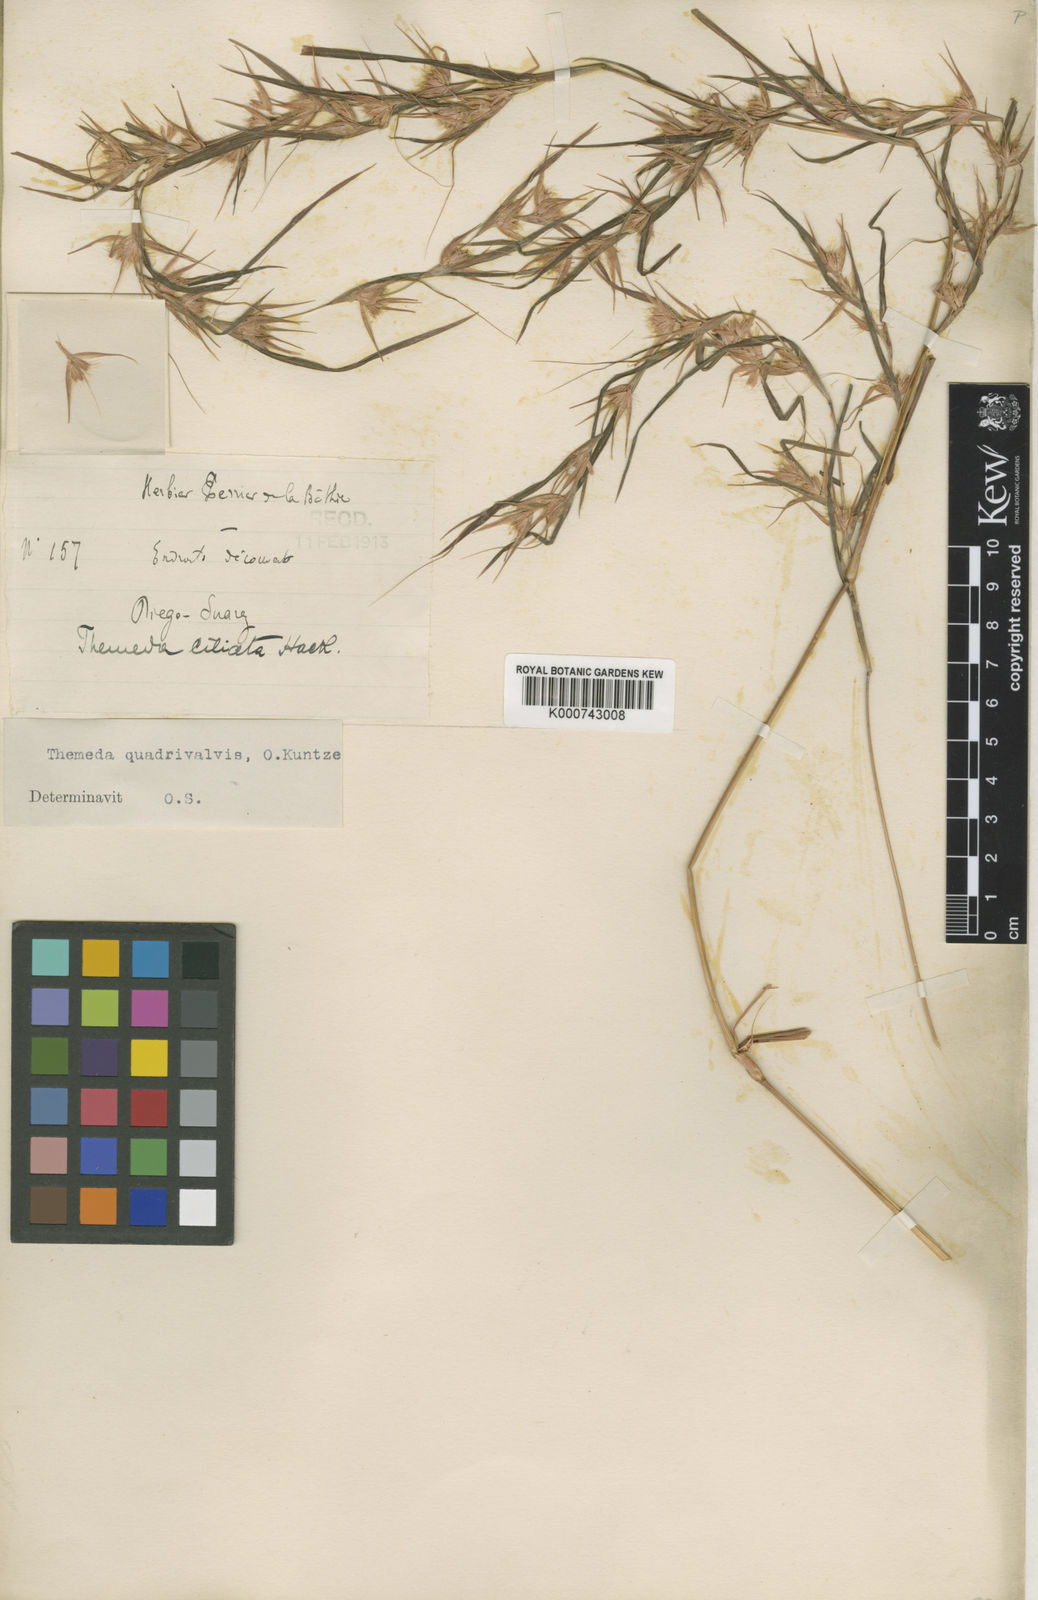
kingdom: Plantae
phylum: Tracheophyta
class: Liliopsida
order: Poales
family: Poaceae
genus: Themeda
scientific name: Themeda quadrivalvis
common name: Kangaroo grass
